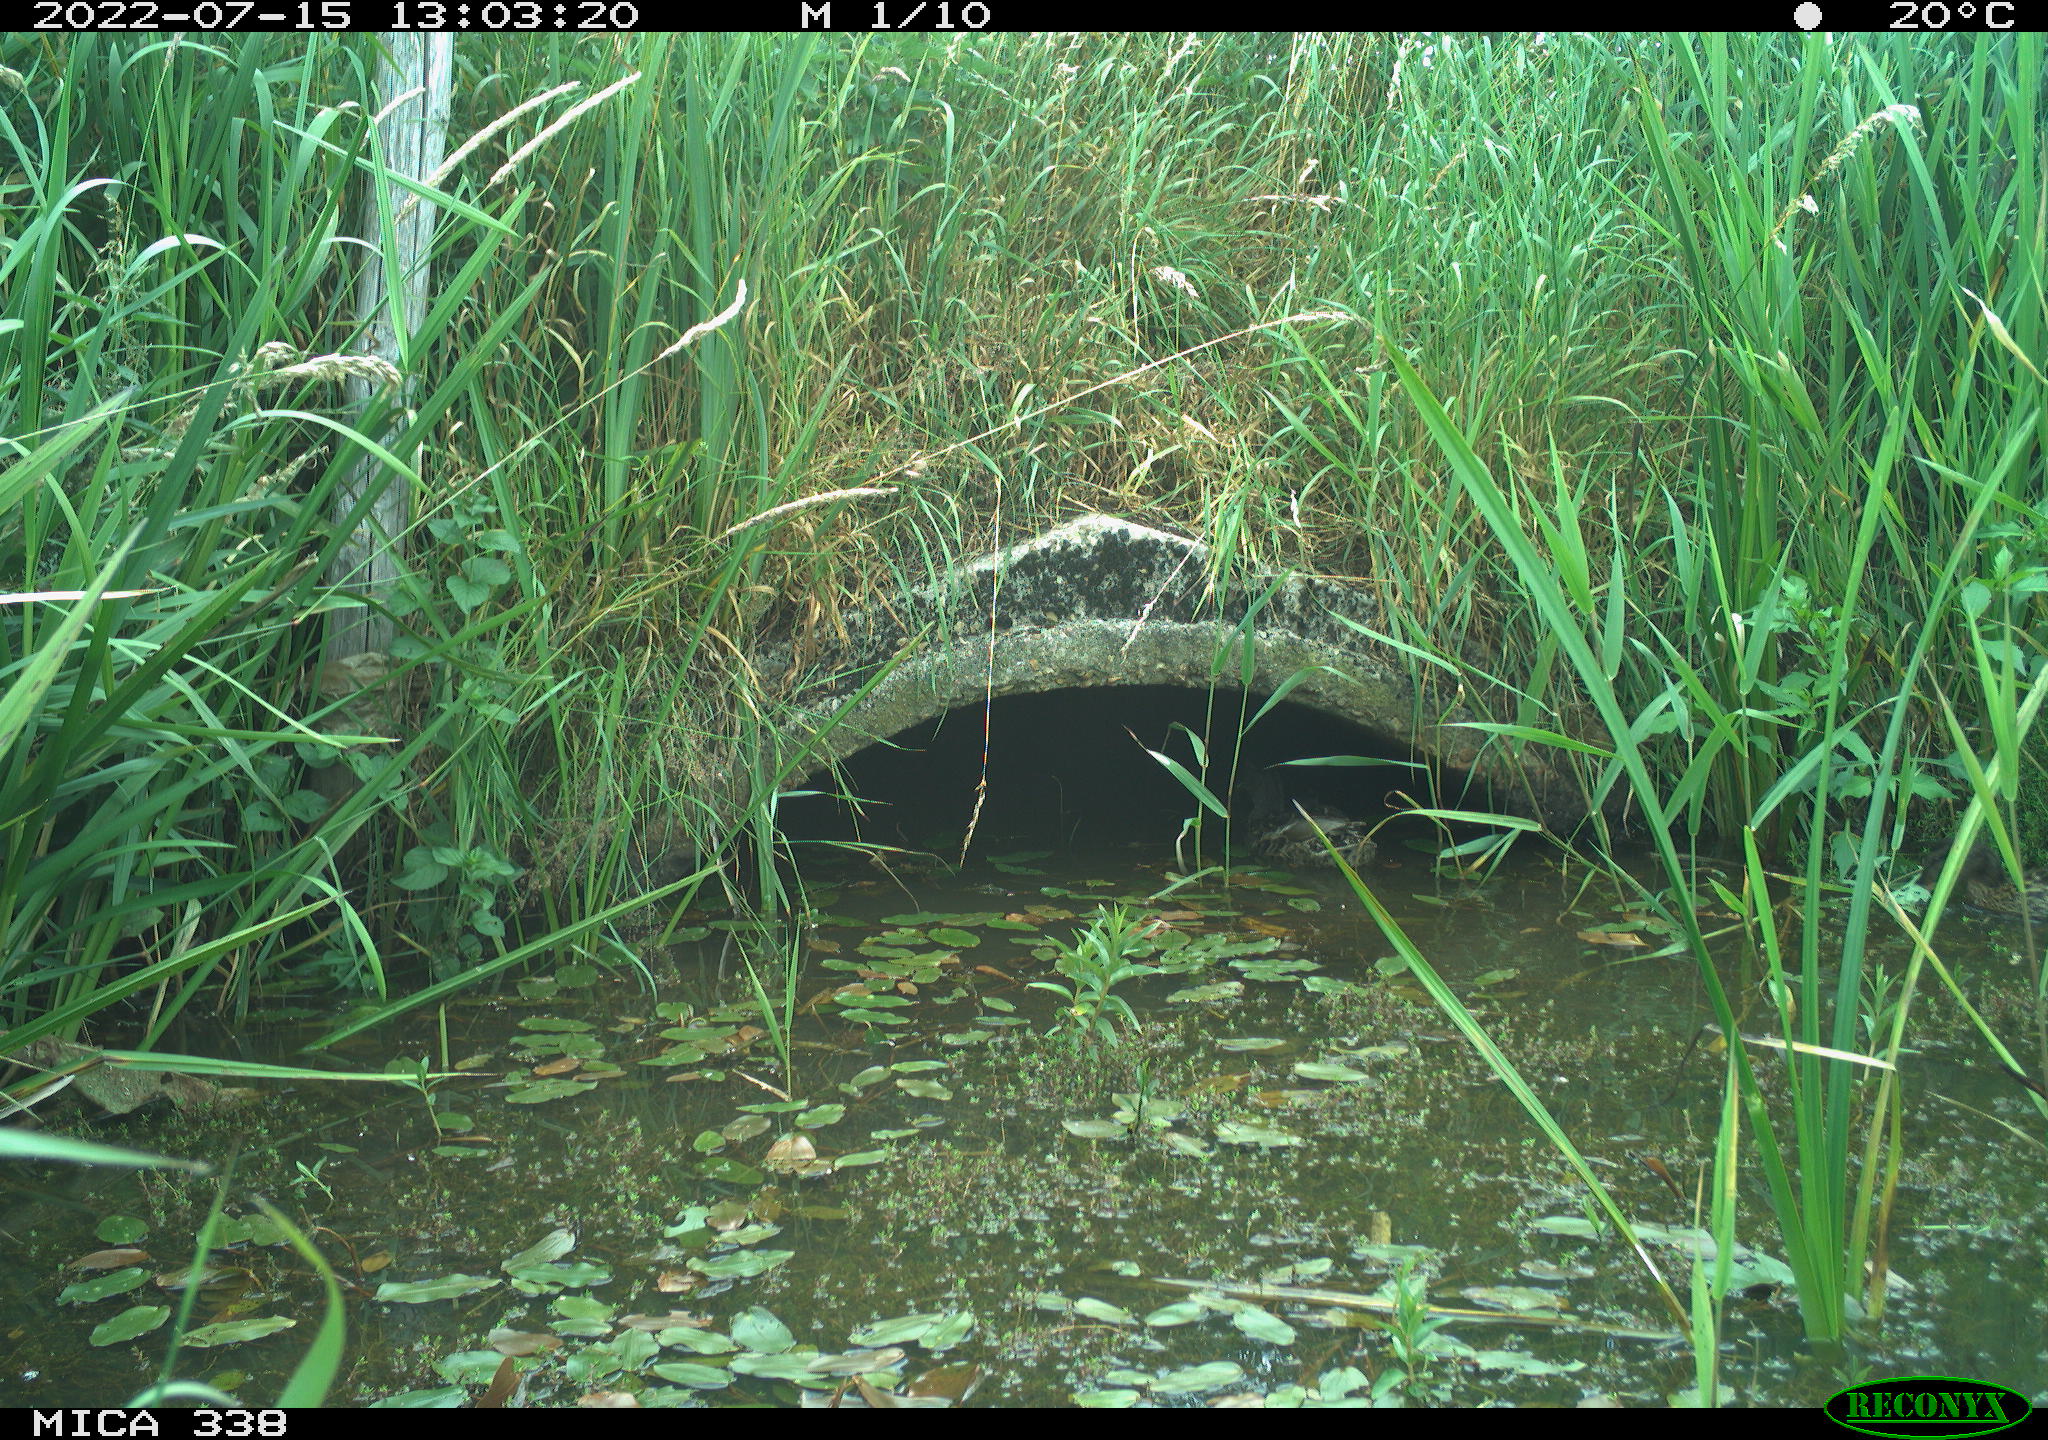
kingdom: Animalia
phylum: Chordata
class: Aves
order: Anseriformes
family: Anatidae
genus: Anas
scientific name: Anas platyrhynchos
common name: Mallard
